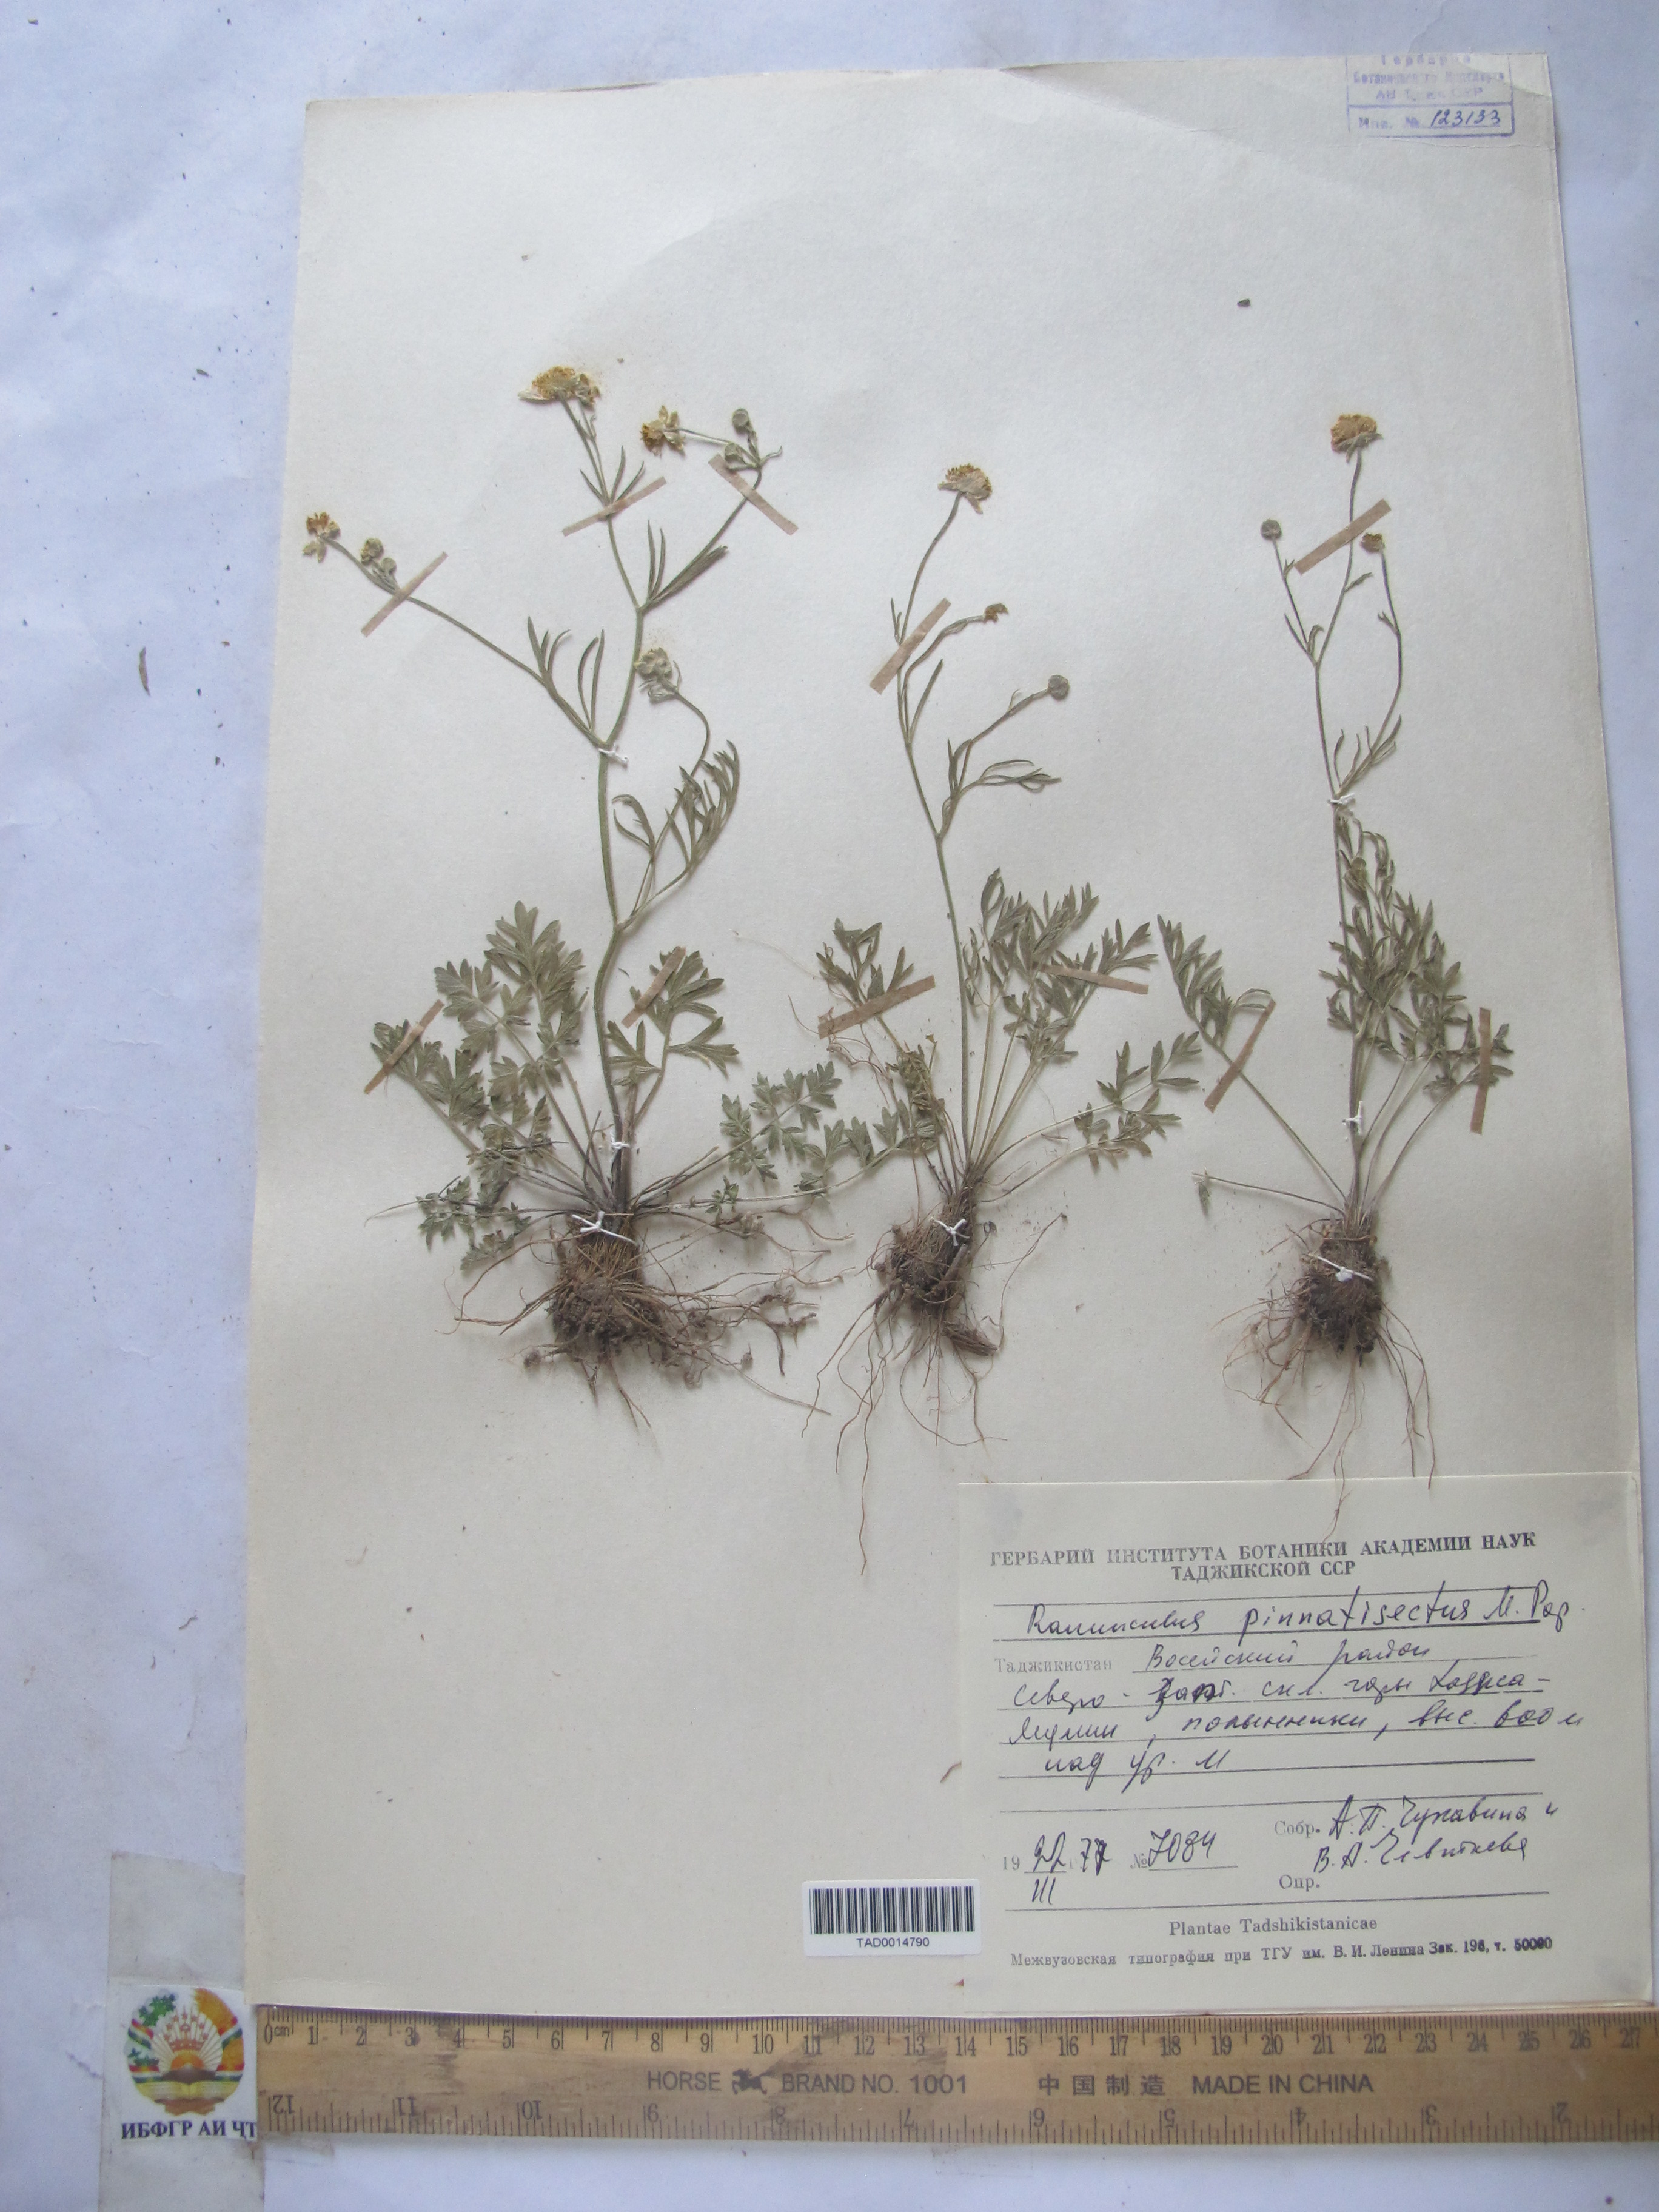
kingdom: Plantae
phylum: Tracheophyta
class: Magnoliopsida
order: Ranunculales
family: Ranunculaceae
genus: Ranunculus
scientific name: Ranunculus pinnatisectus
